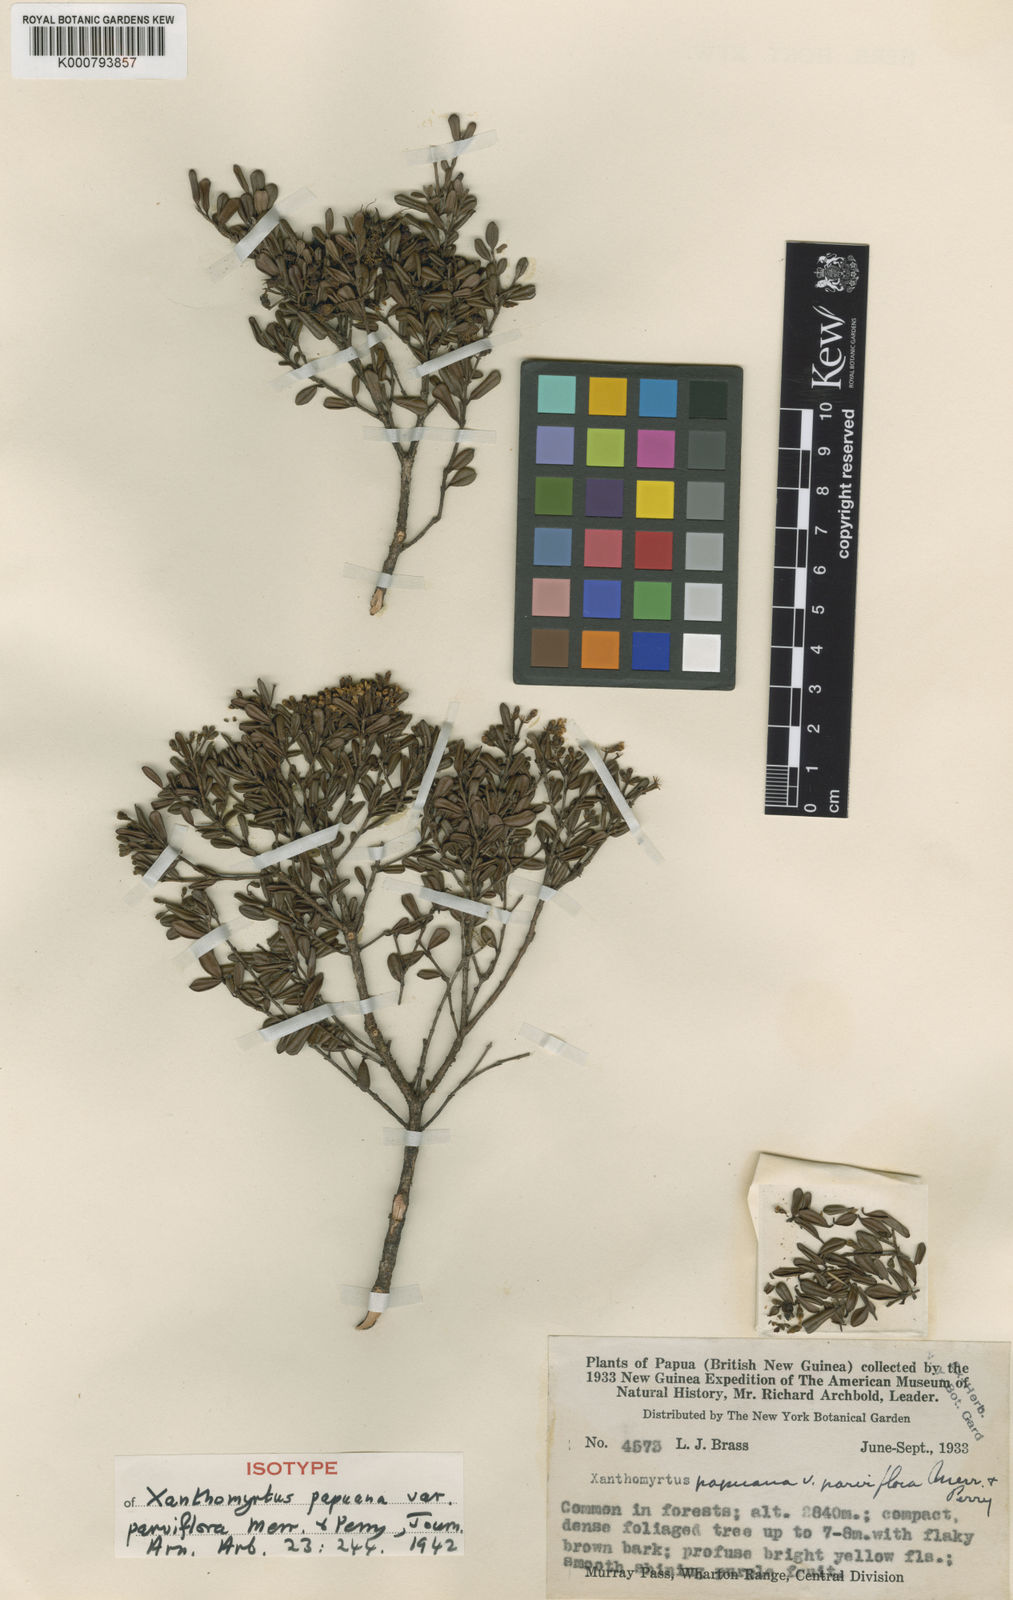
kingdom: Plantae
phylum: Tracheophyta
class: Magnoliopsida
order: Myrtales
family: Myrtaceae
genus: Xanthomyrtus
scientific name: Xanthomyrtus papuana
